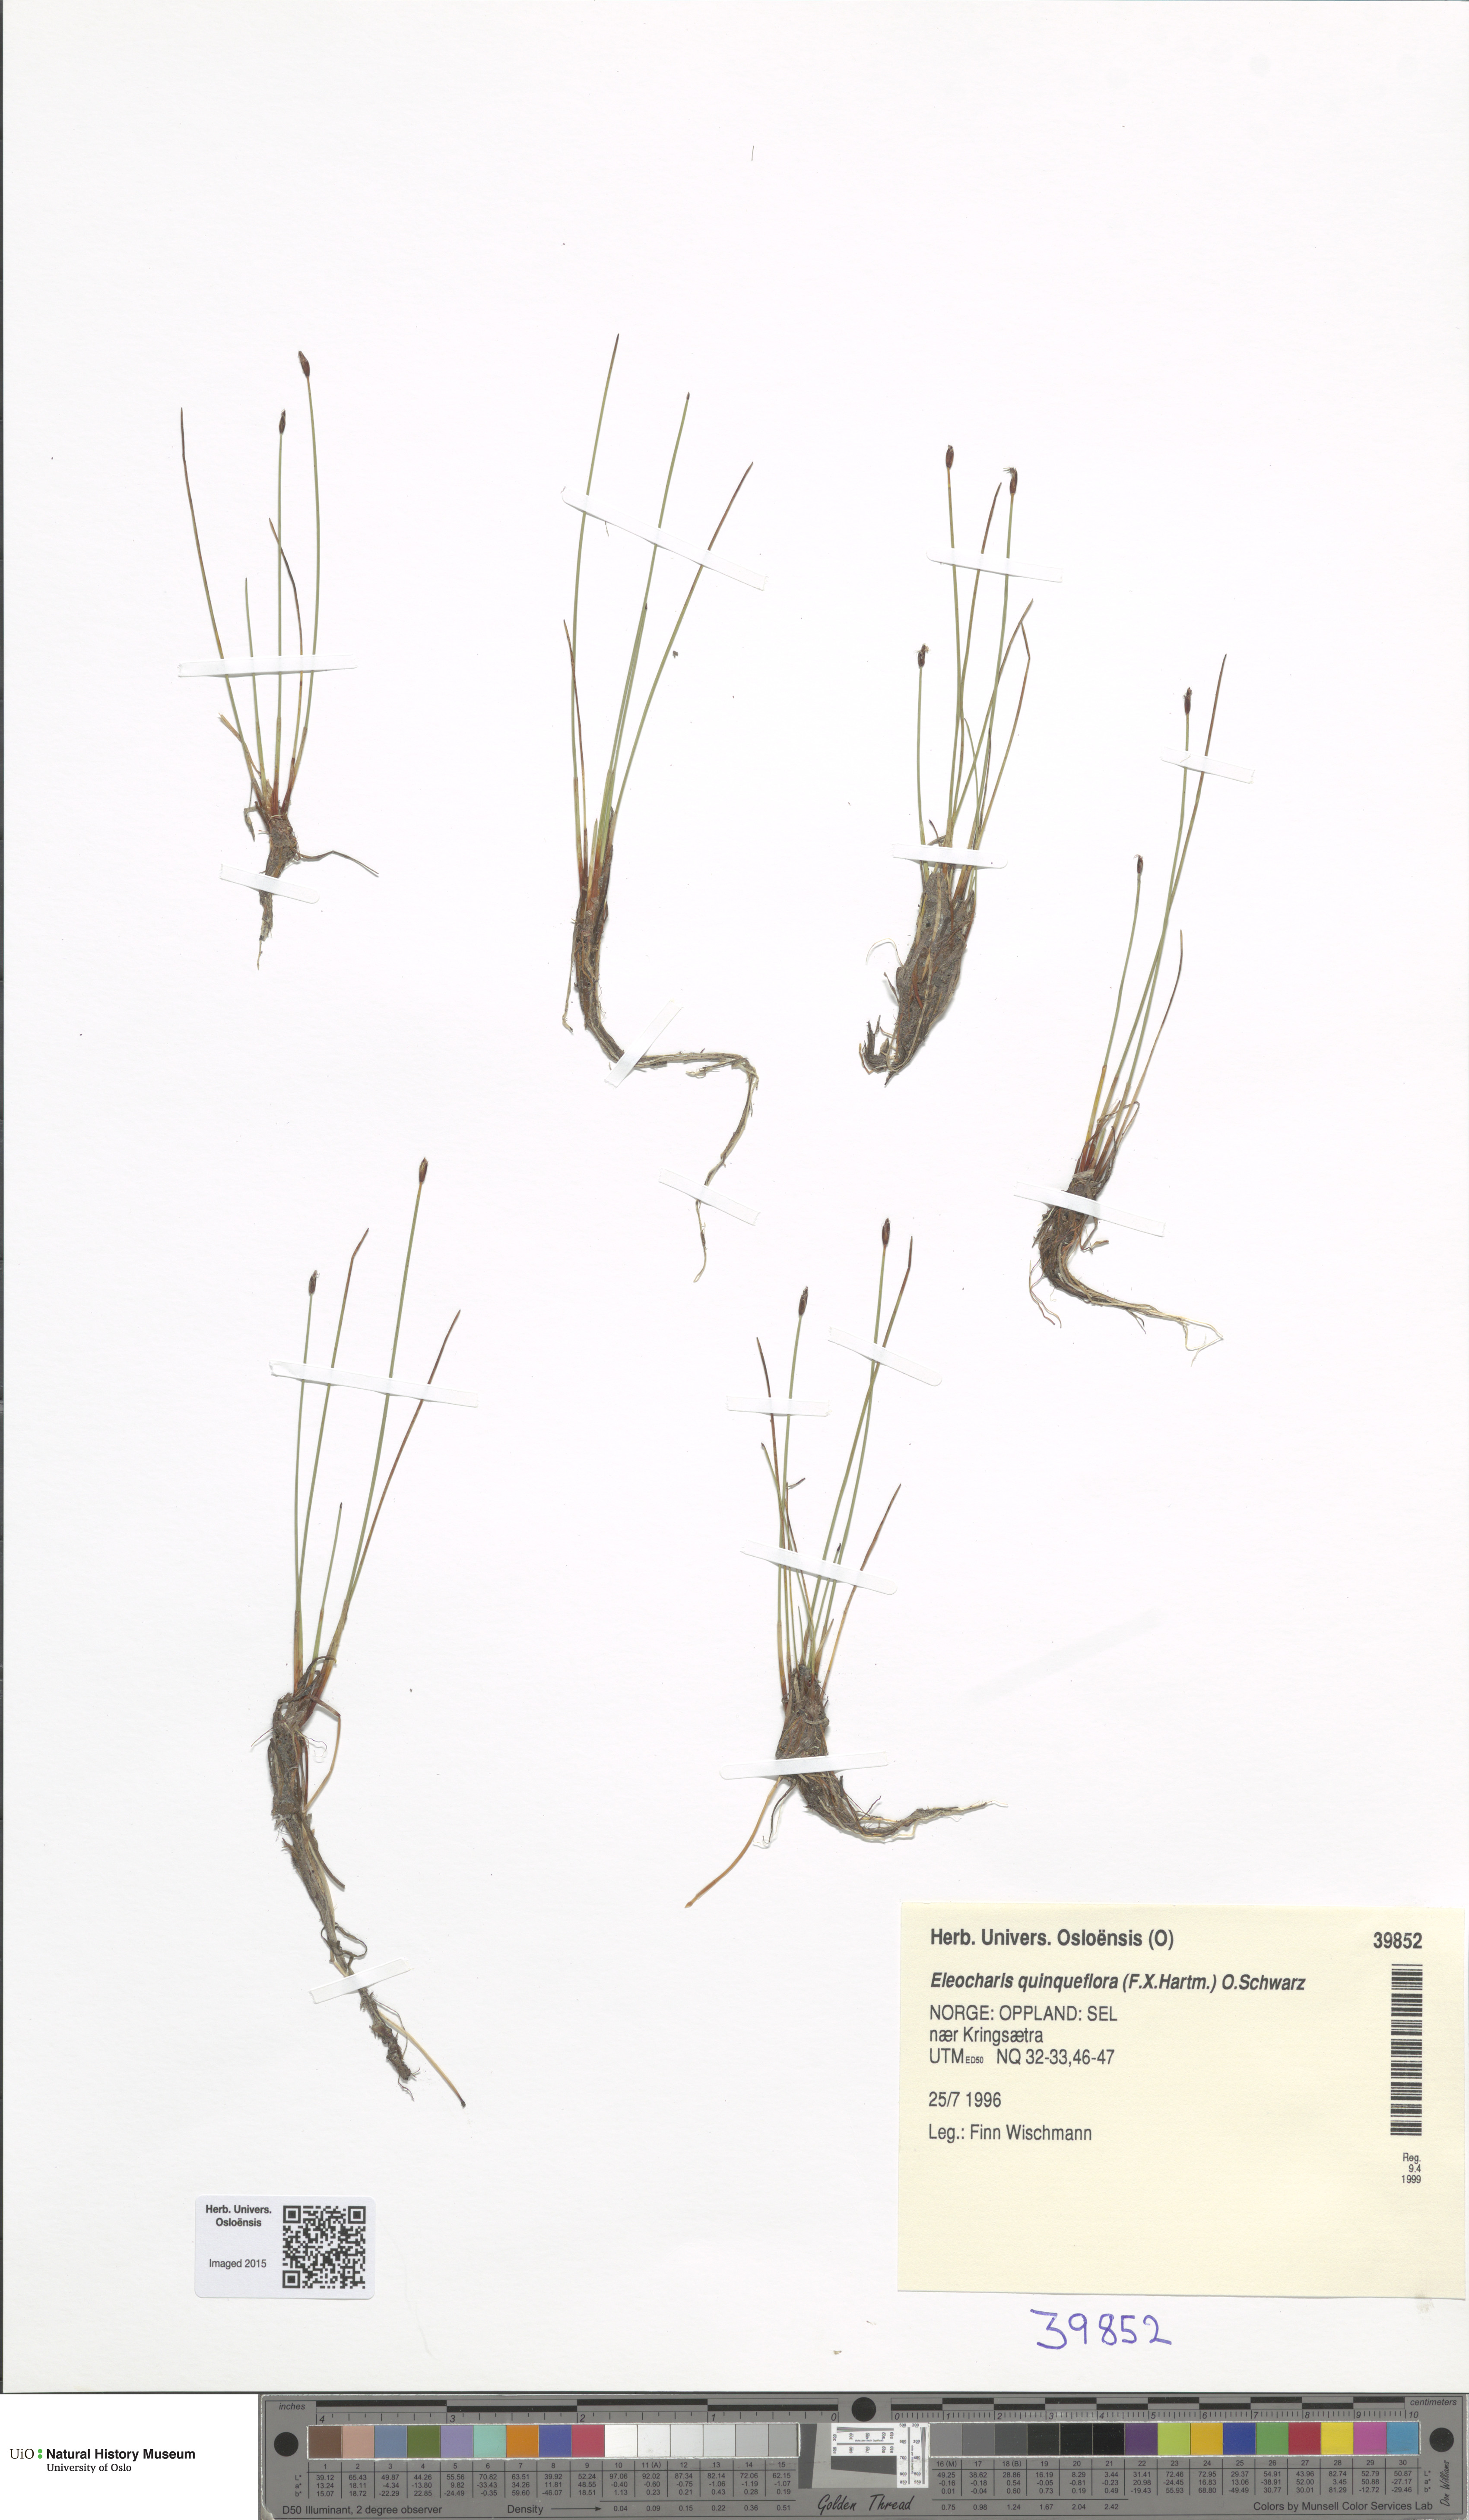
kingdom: Plantae
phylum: Tracheophyta
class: Liliopsida
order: Poales
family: Cyperaceae
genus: Eleocharis
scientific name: Eleocharis quinqueflora
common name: Few-flowered spike-rush
